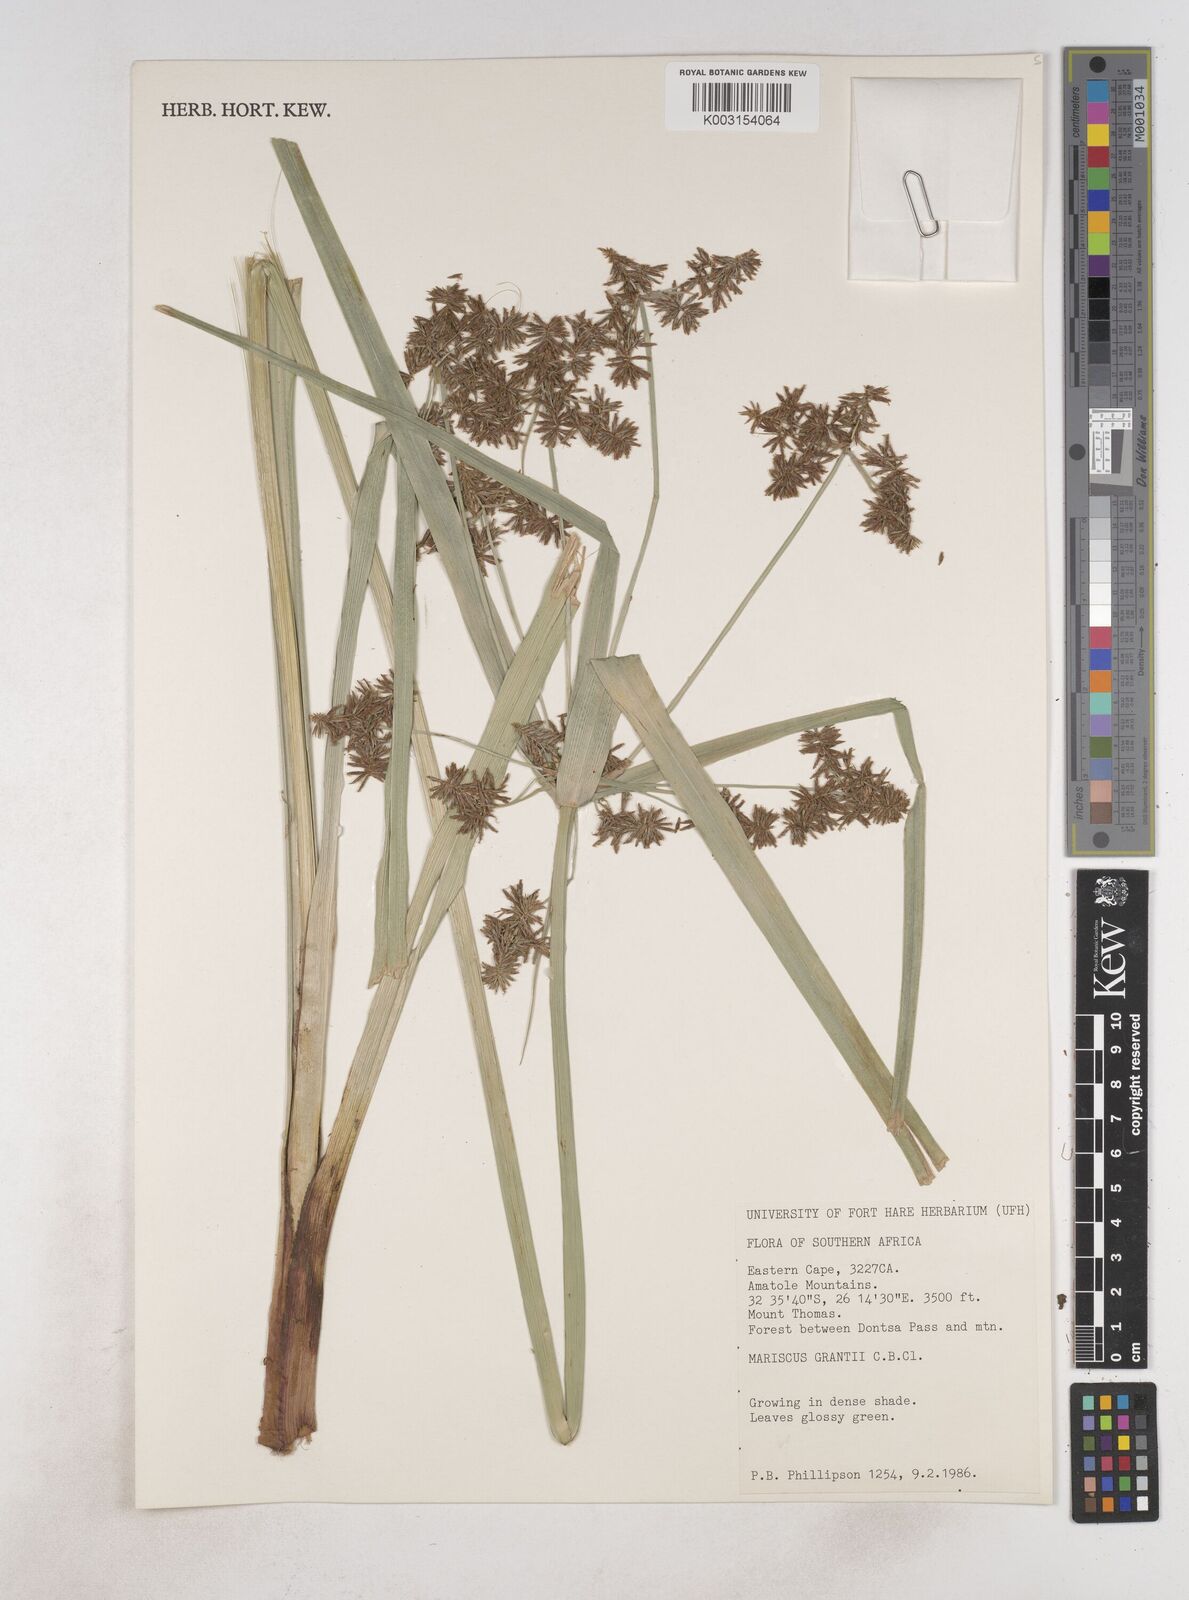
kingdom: Plantae
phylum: Tracheophyta
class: Liliopsida
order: Poales
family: Cyperaceae
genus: Cyperus
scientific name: Cyperus owanii
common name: Owan's flatsedge
